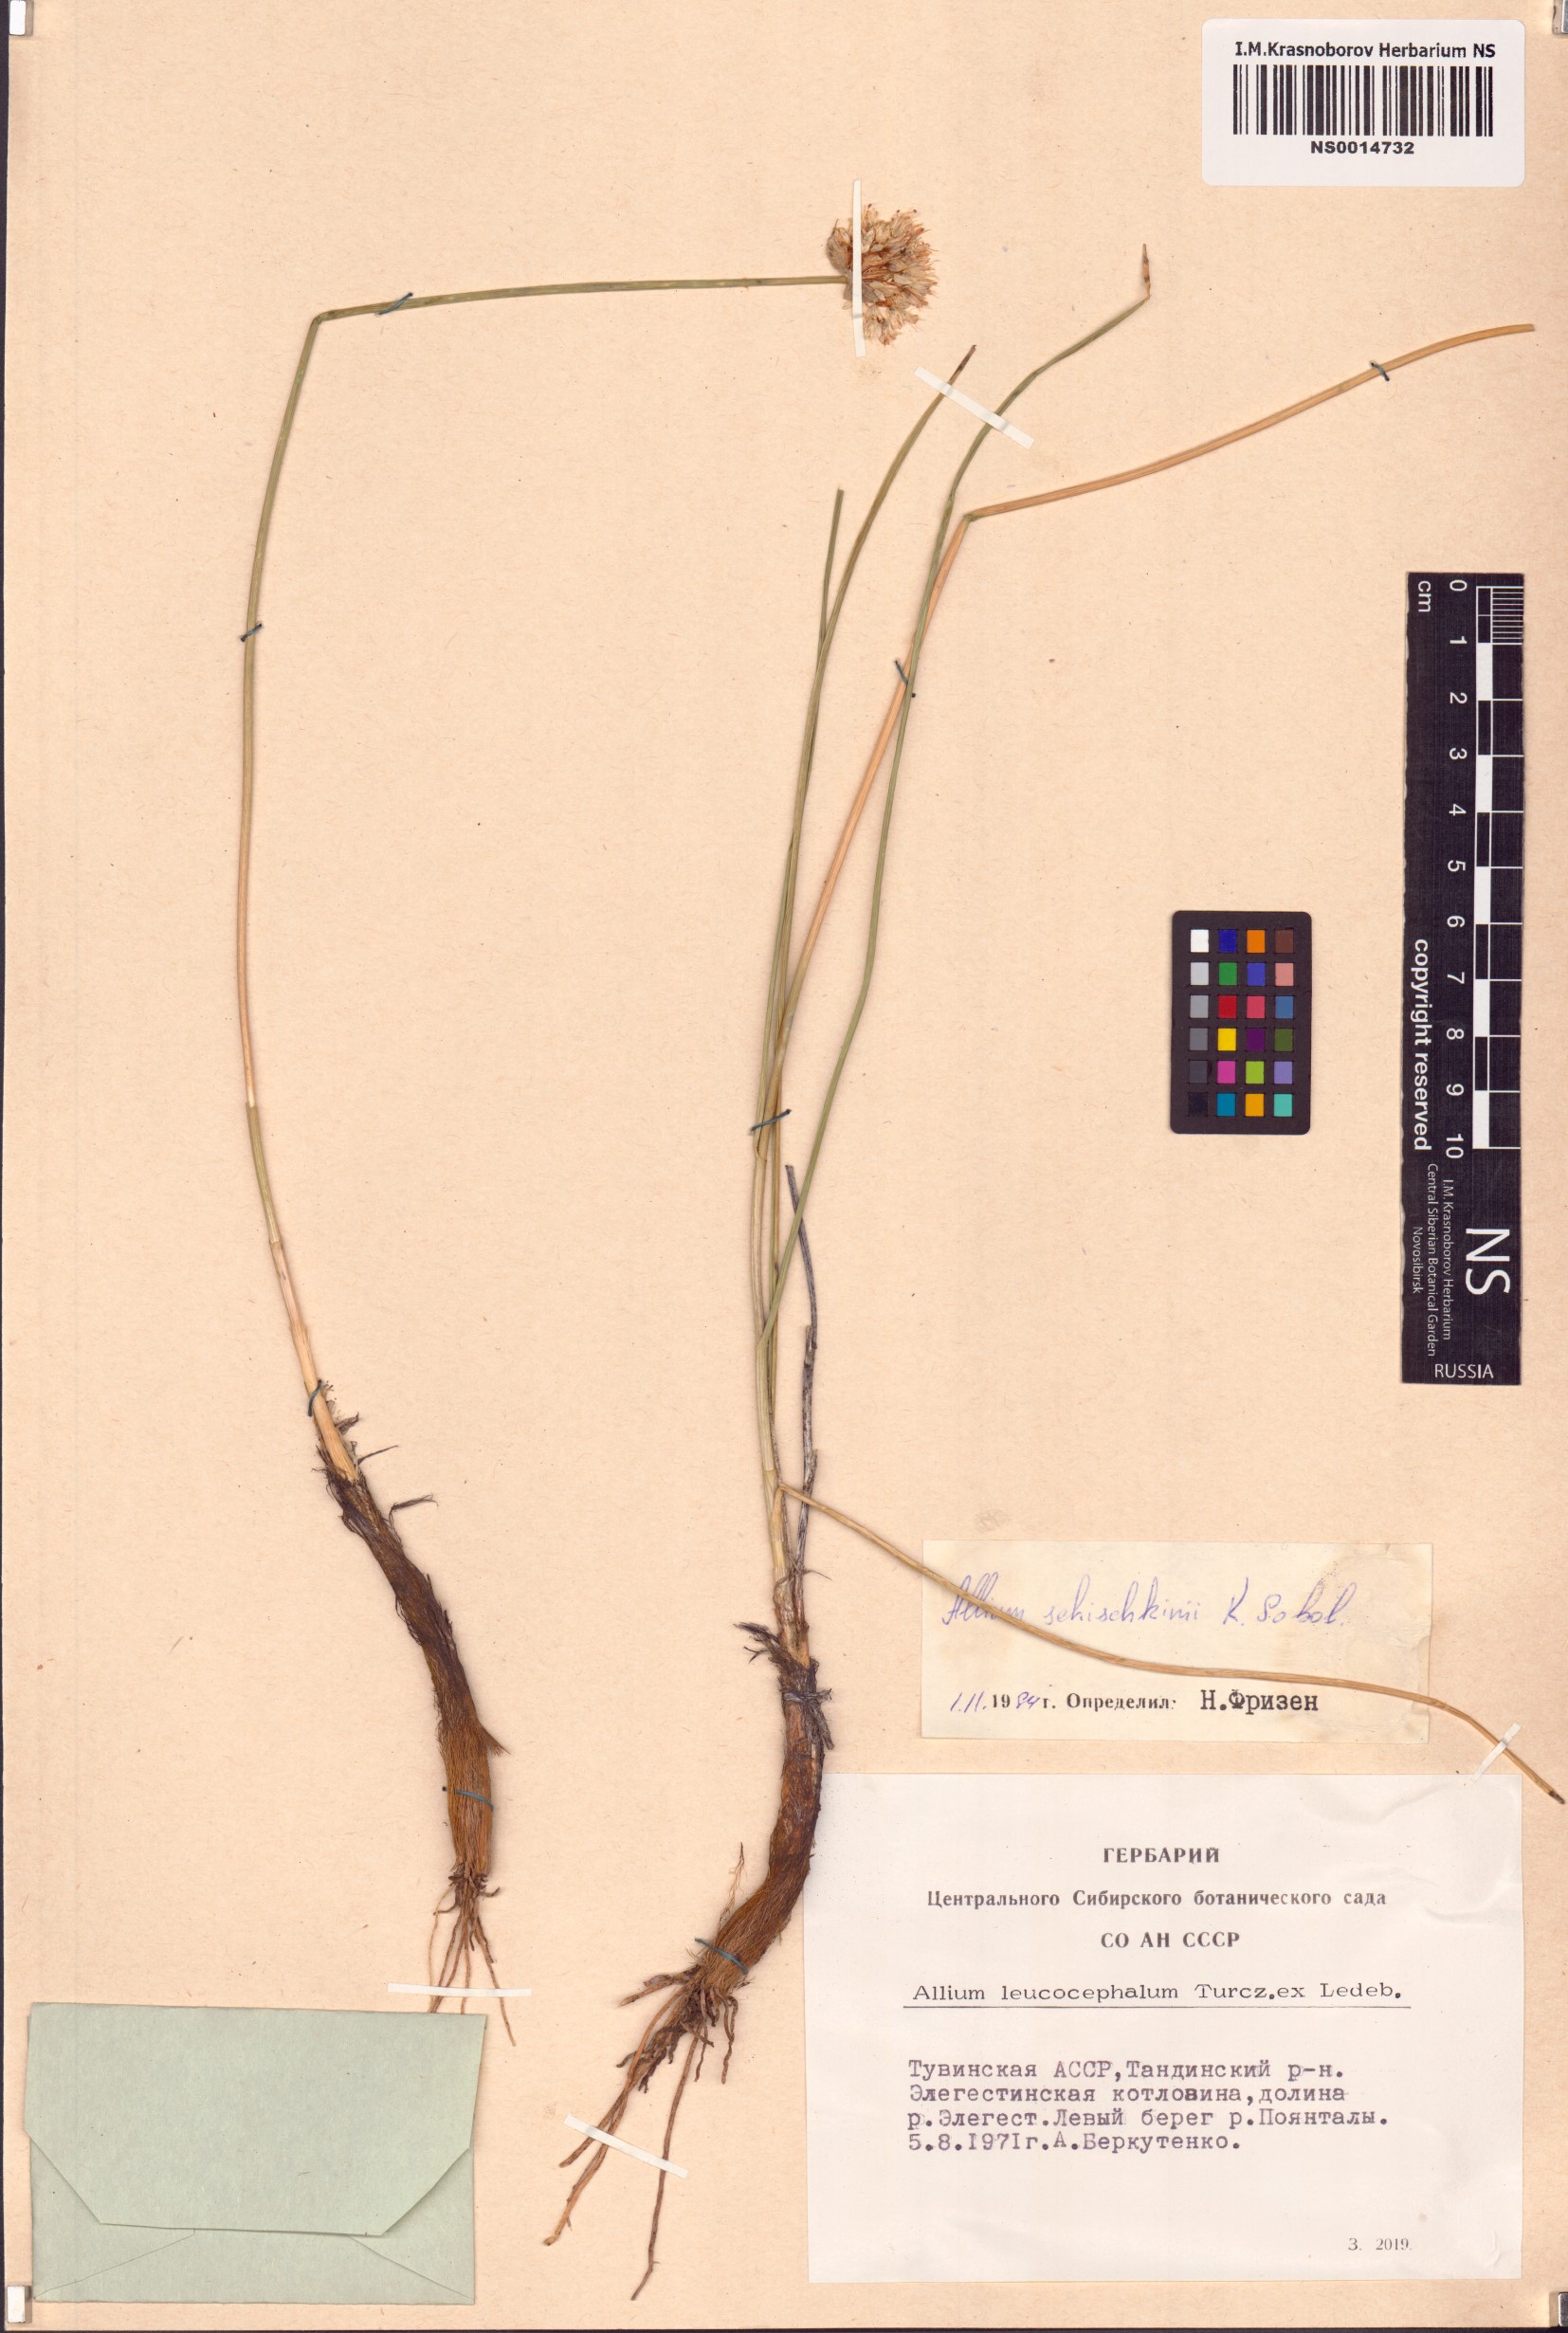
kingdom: Plantae
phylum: Tracheophyta
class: Liliopsida
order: Asparagales
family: Amaryllidaceae
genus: Allium
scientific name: Allium schischkinii
